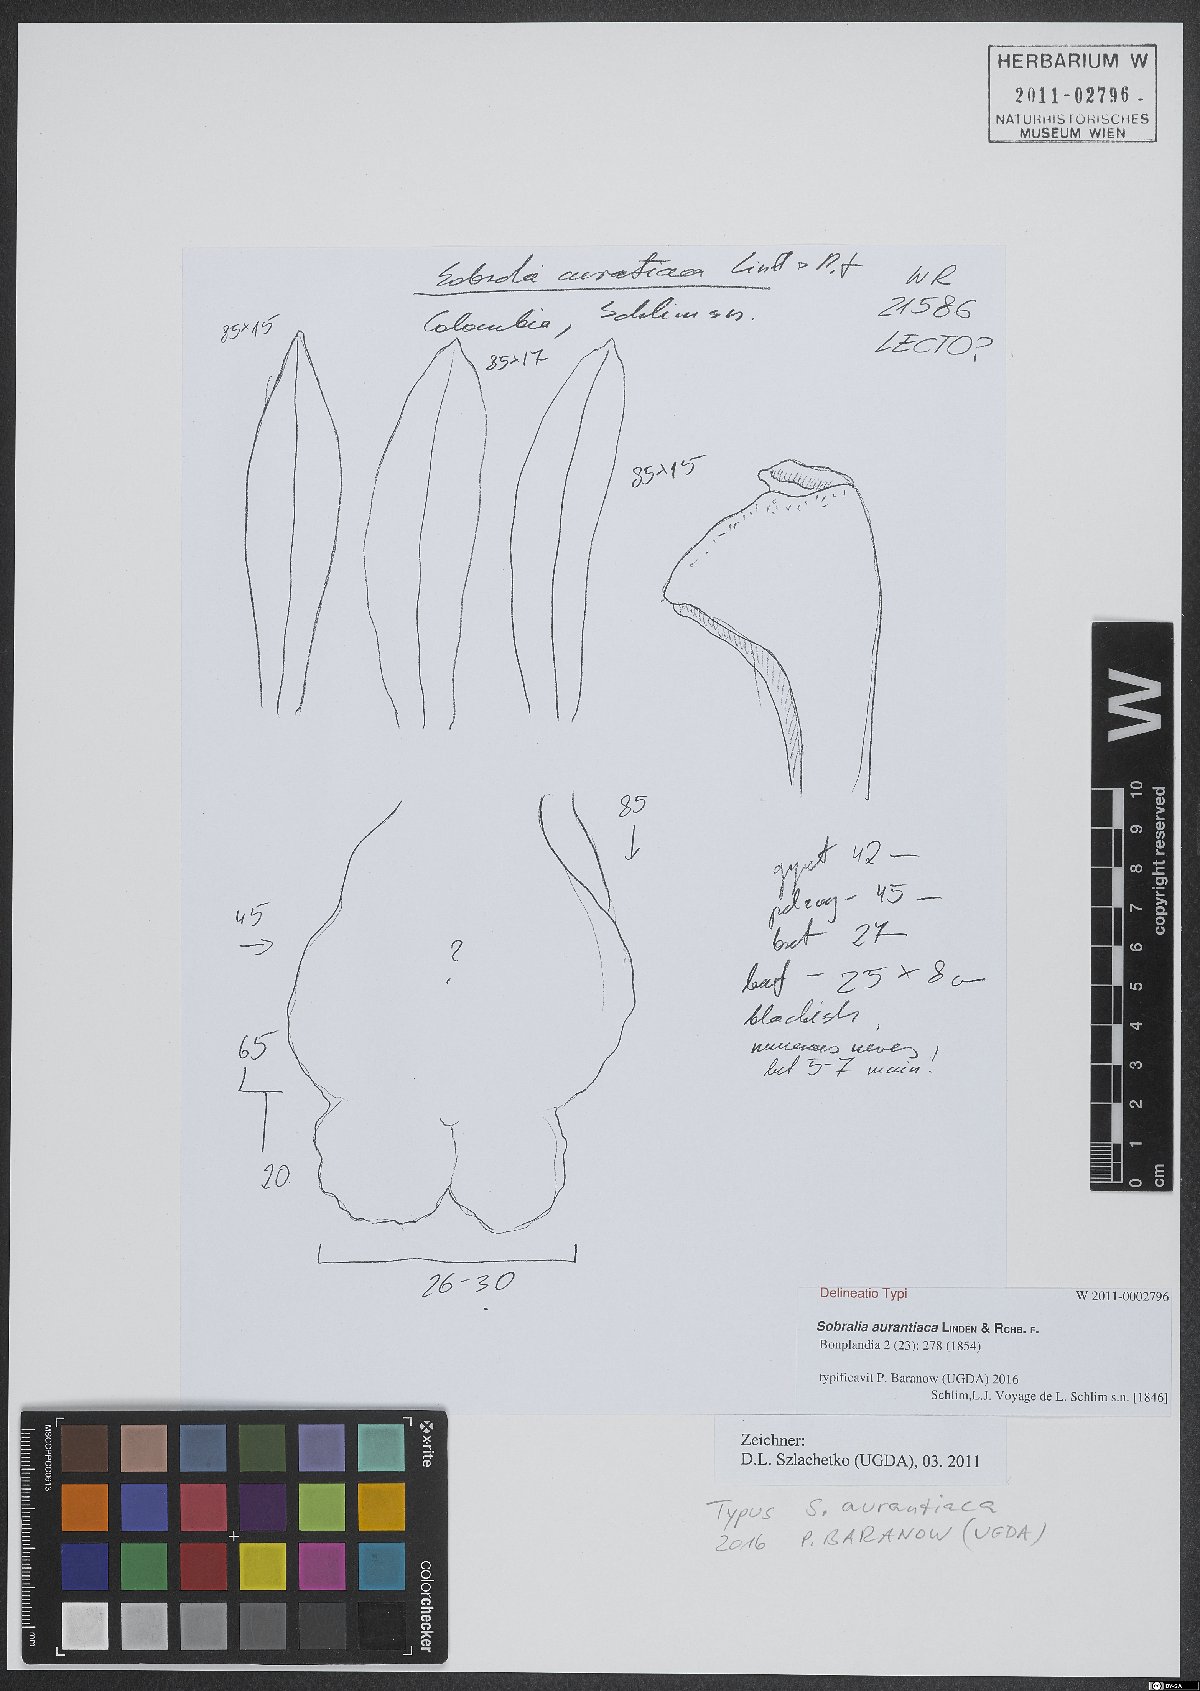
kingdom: Plantae
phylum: Tracheophyta
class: Liliopsida
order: Asparagales
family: Orchidaceae
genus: Sobralia
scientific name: Sobralia macrophylla
